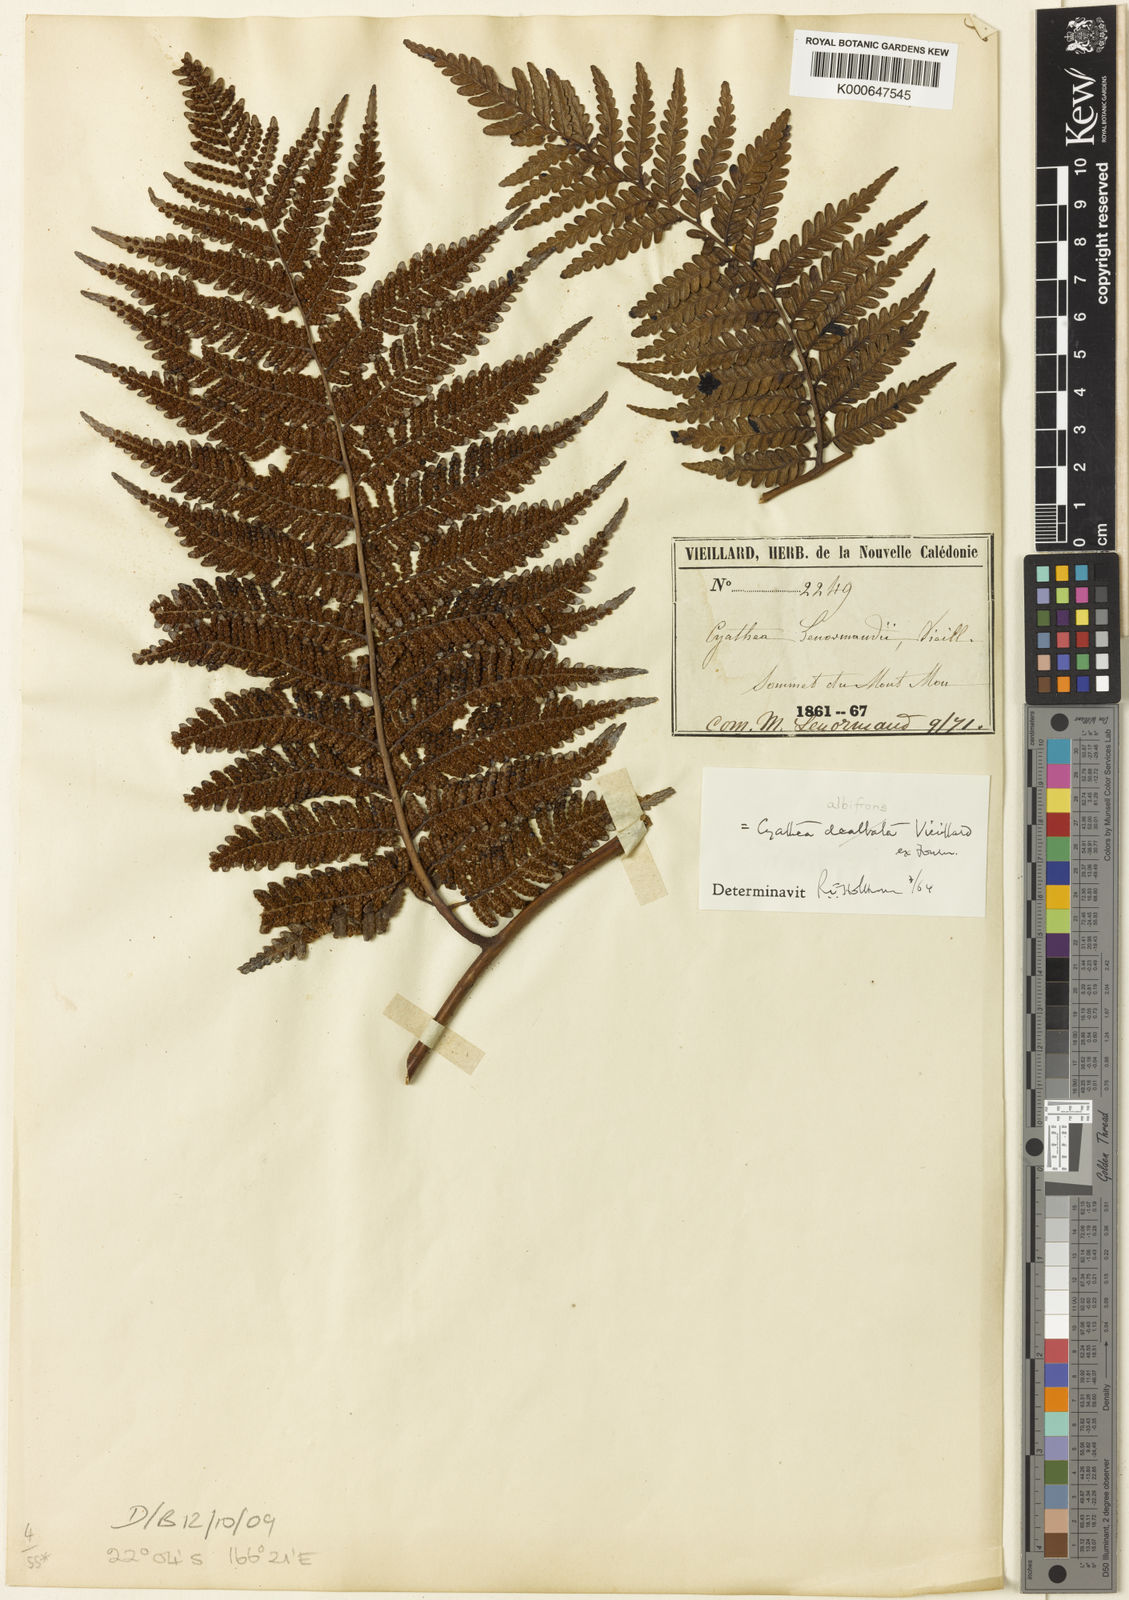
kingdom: Plantae
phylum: Tracheophyta
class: Polypodiopsida
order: Cyatheales
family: Cyatheaceae
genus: Cyathea
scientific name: Cyathea
